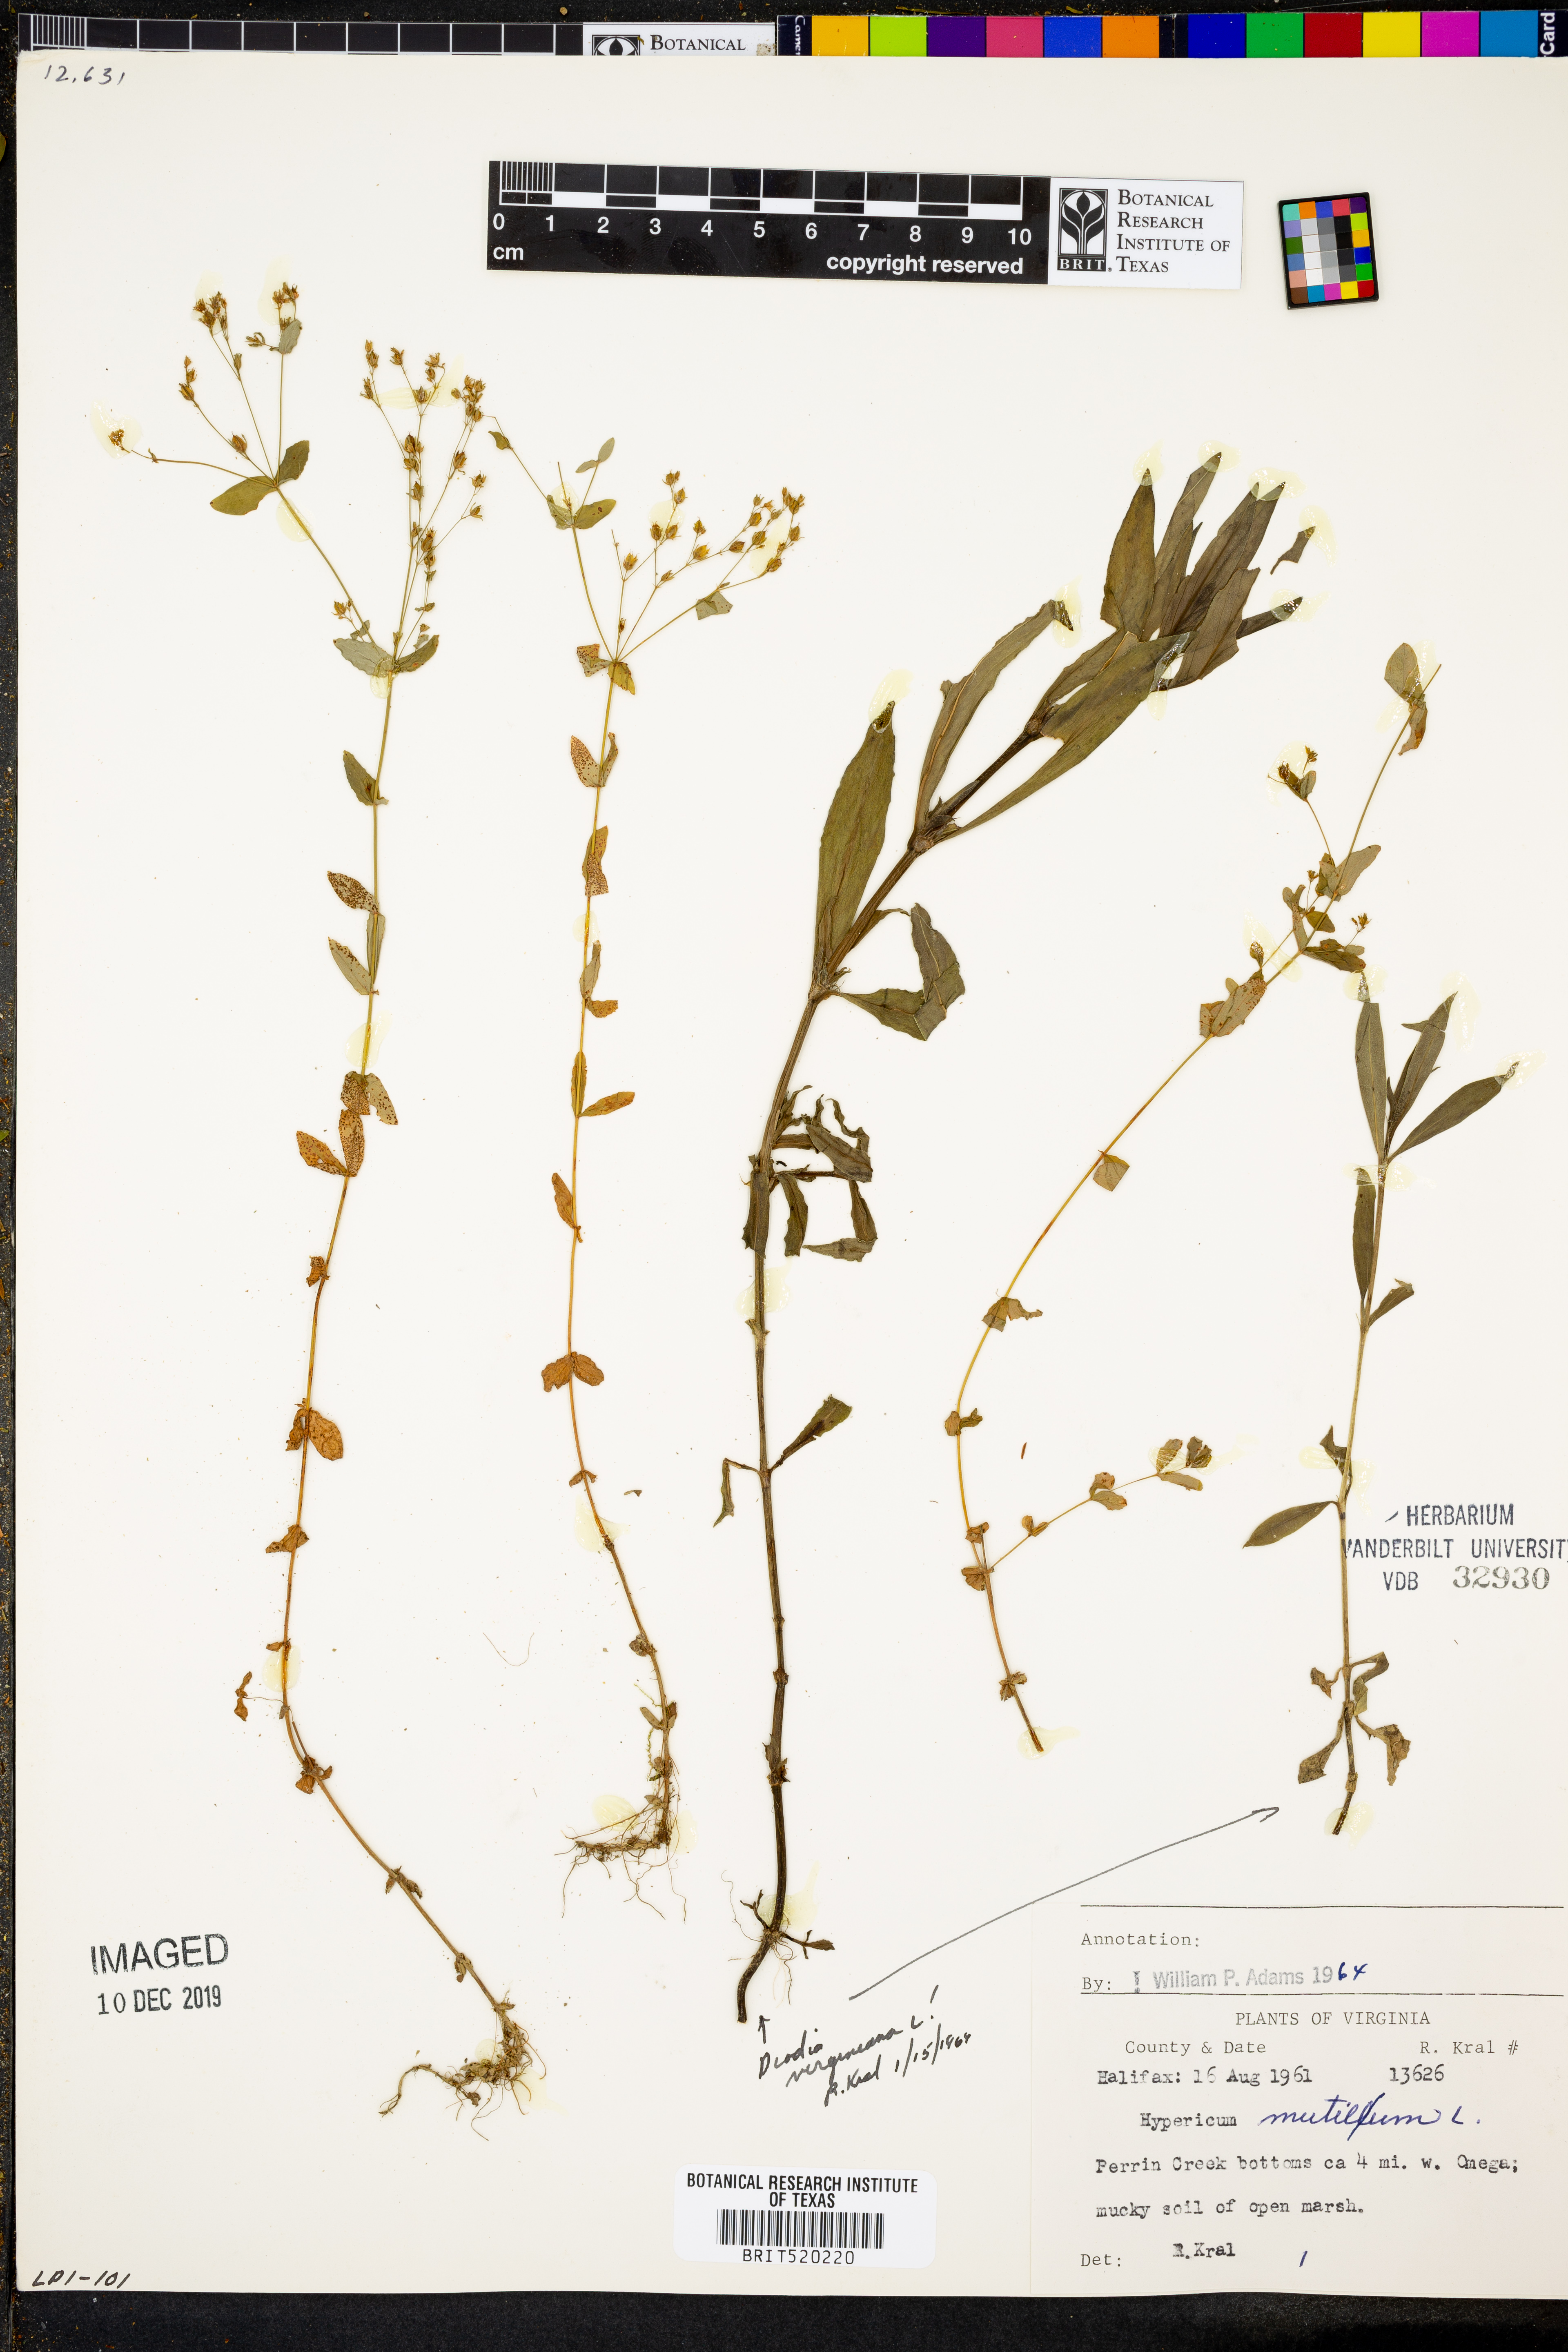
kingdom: Plantae
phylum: Tracheophyta
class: Magnoliopsida
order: Malpighiales
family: Hypericaceae
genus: Hypericum
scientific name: Hypericum mutilum
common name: Dwarf st. john's-wort
